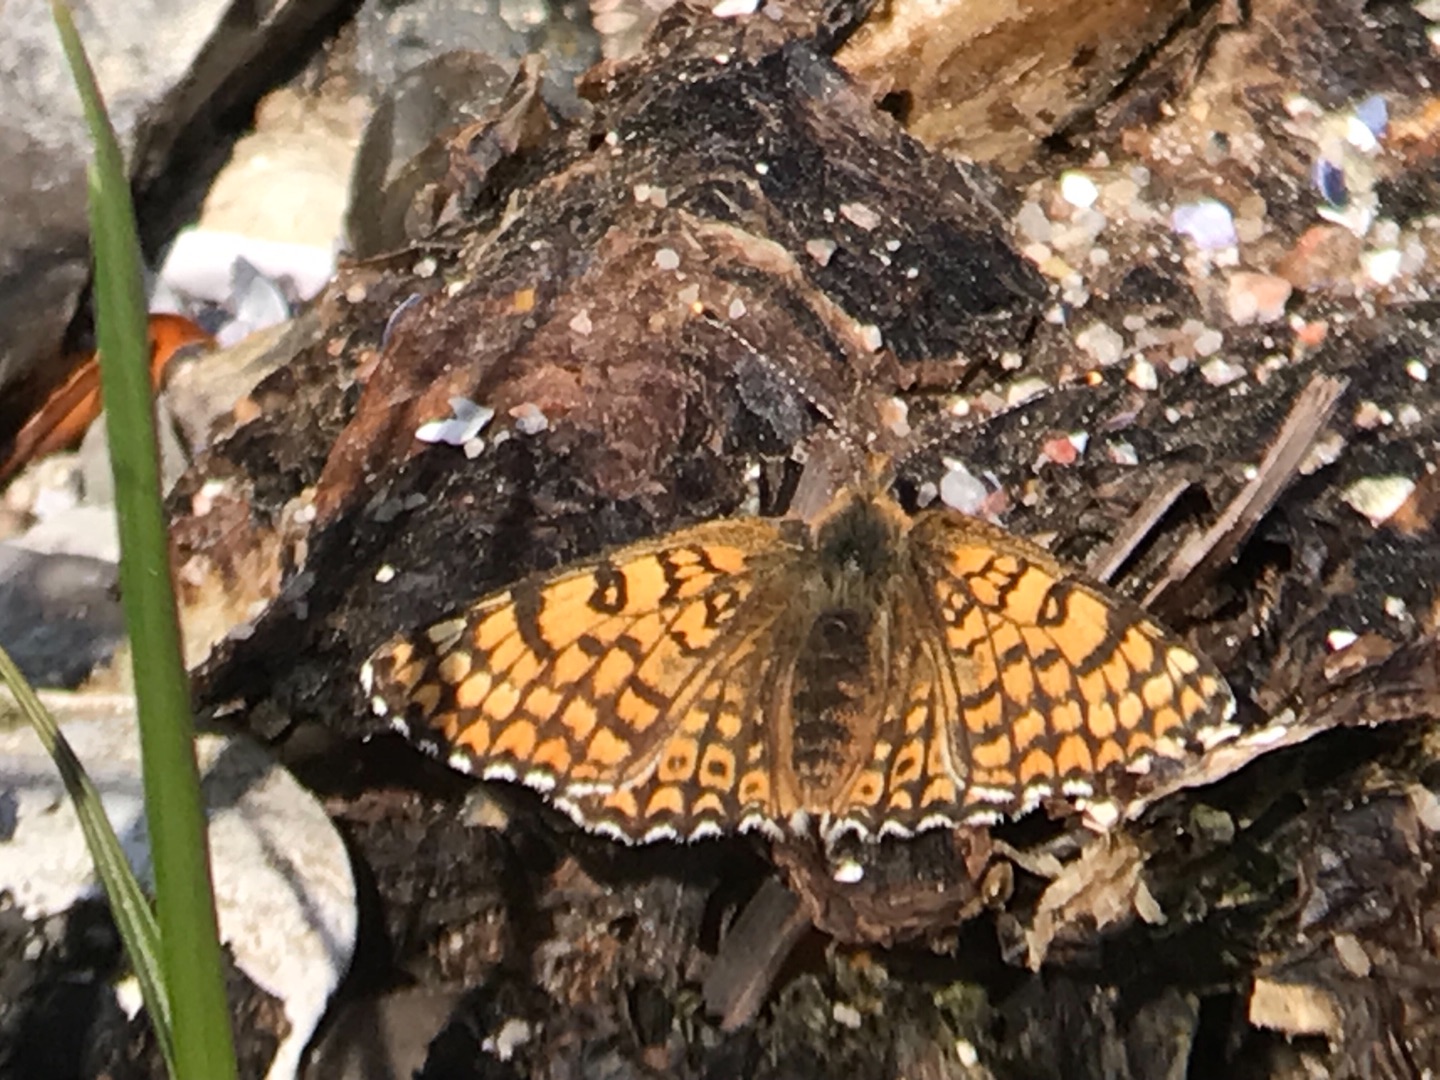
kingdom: Animalia
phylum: Arthropoda
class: Insecta
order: Lepidoptera
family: Nymphalidae
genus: Melitaea
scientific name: Melitaea cinxia
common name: Okkergul pletvinge
